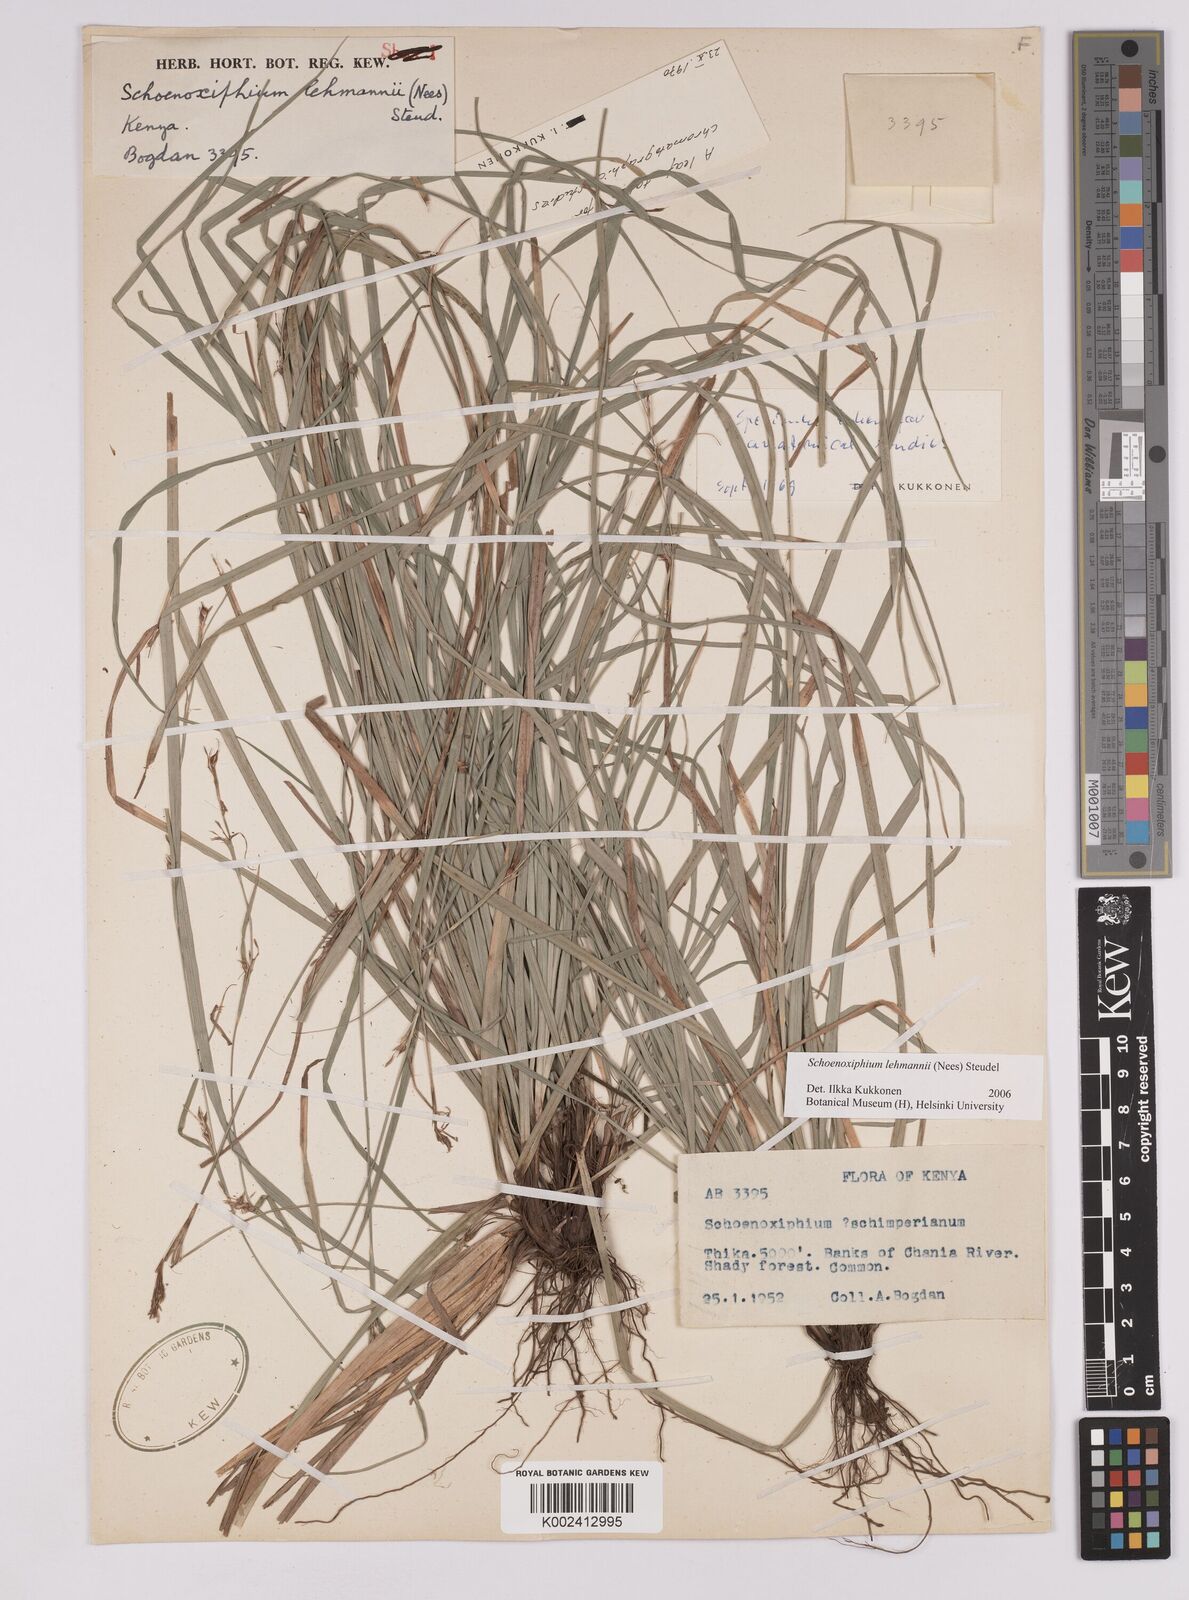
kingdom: Plantae
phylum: Tracheophyta
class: Liliopsida
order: Poales
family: Cyperaceae
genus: Carex
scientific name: Carex uhligii
